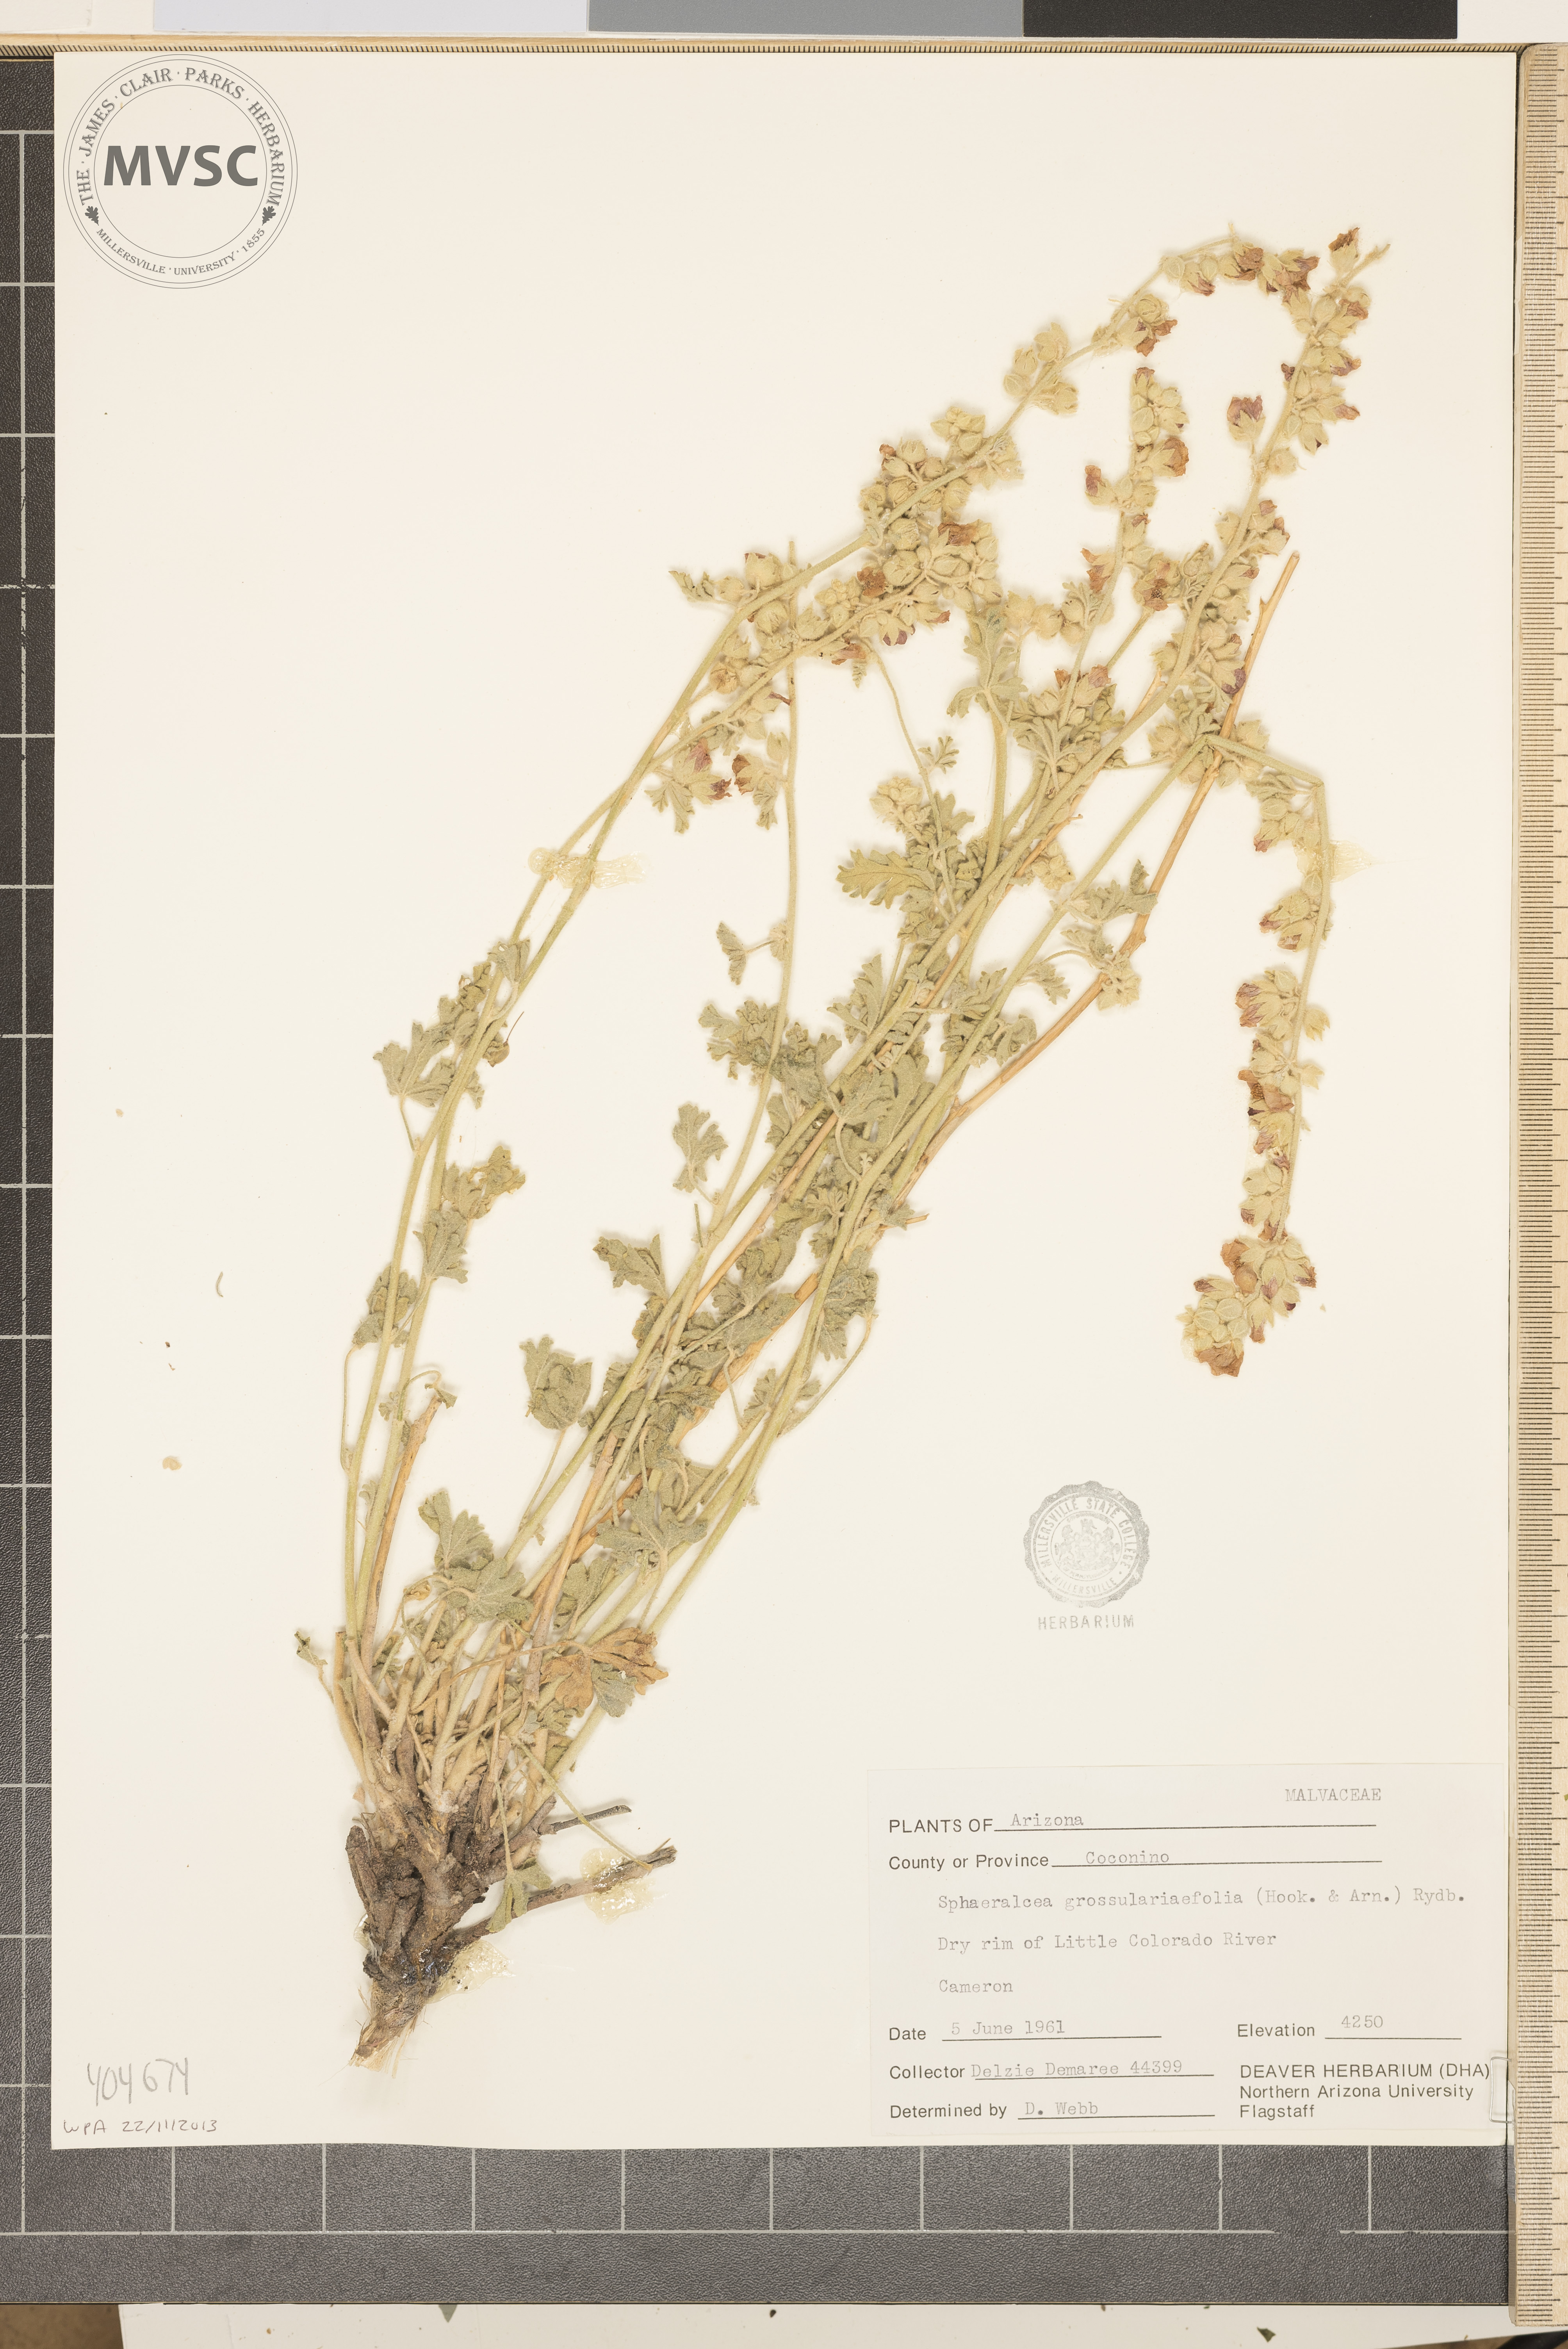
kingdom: Plantae
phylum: Tracheophyta
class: Magnoliopsida
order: Malvales
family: Malvaceae
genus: Sphaeralcea
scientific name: Sphaeralcea grossulariifolia
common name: Current-leaf globe-mallow
